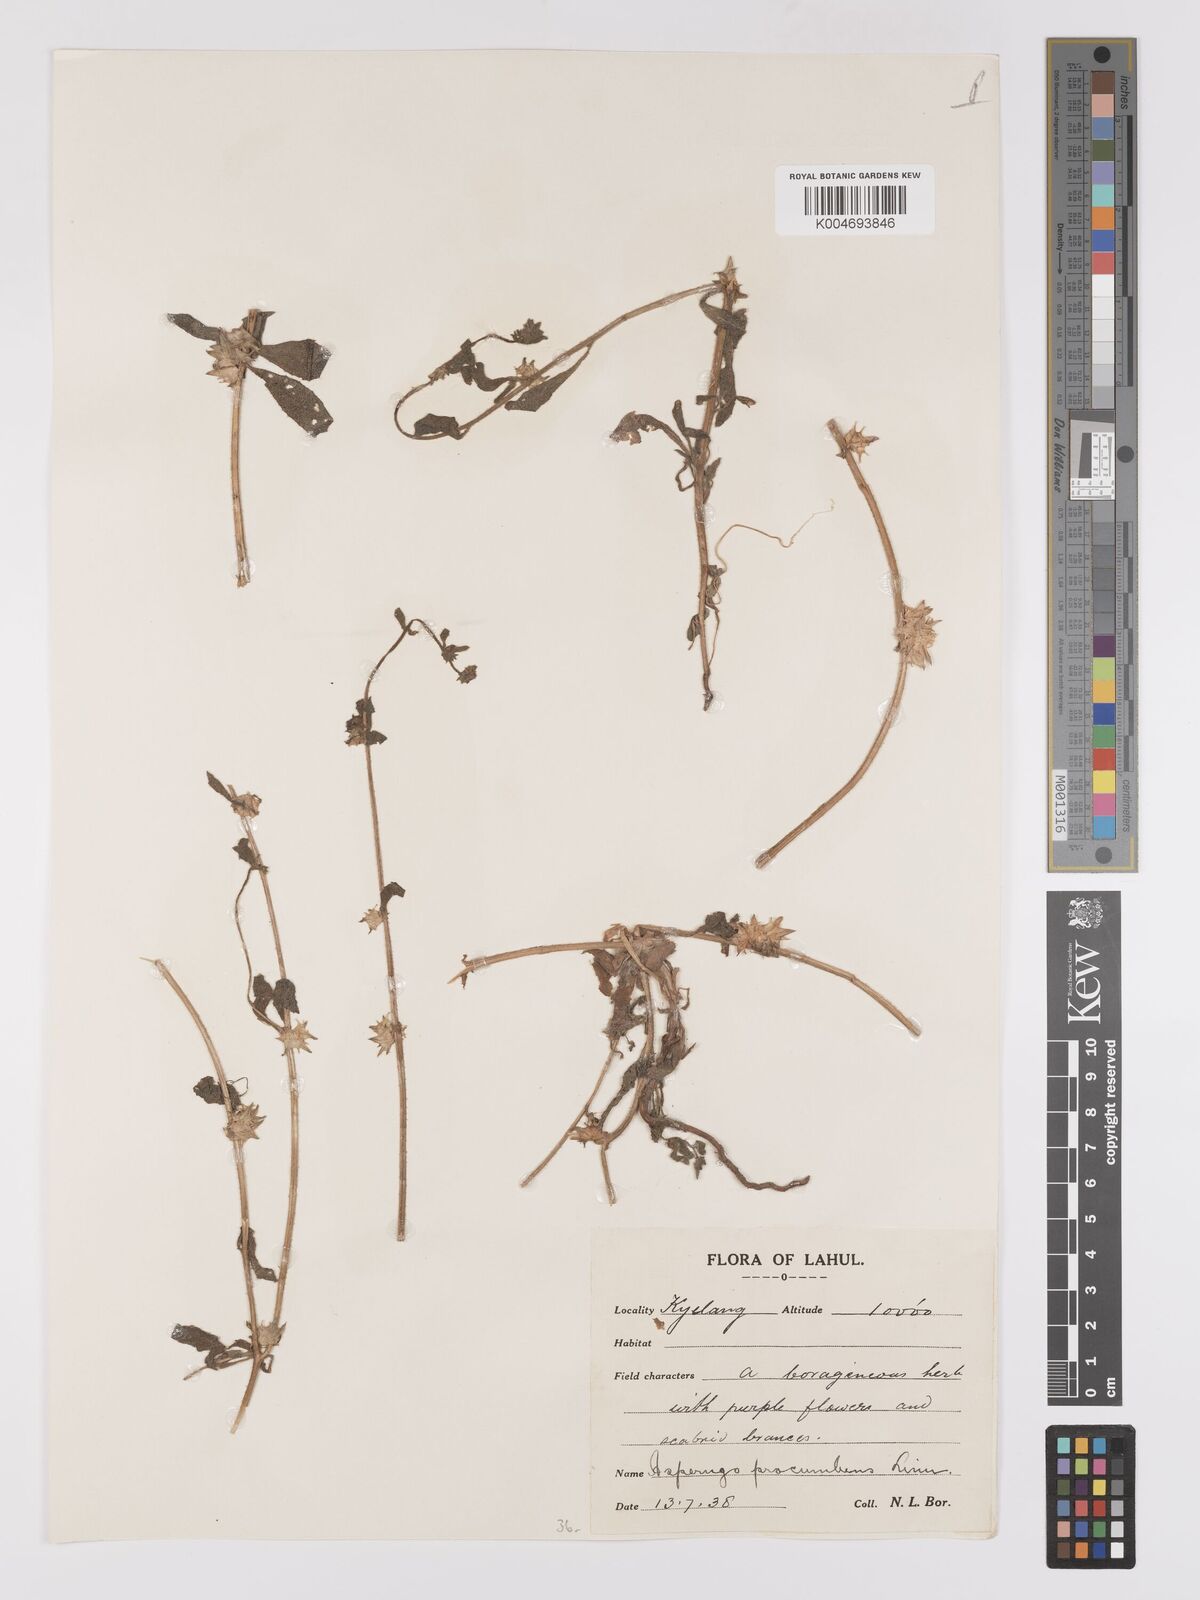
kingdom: Plantae
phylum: Tracheophyta
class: Magnoliopsida
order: Boraginales
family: Boraginaceae
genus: Asperugo
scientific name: Asperugo procumbens
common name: Madwort
